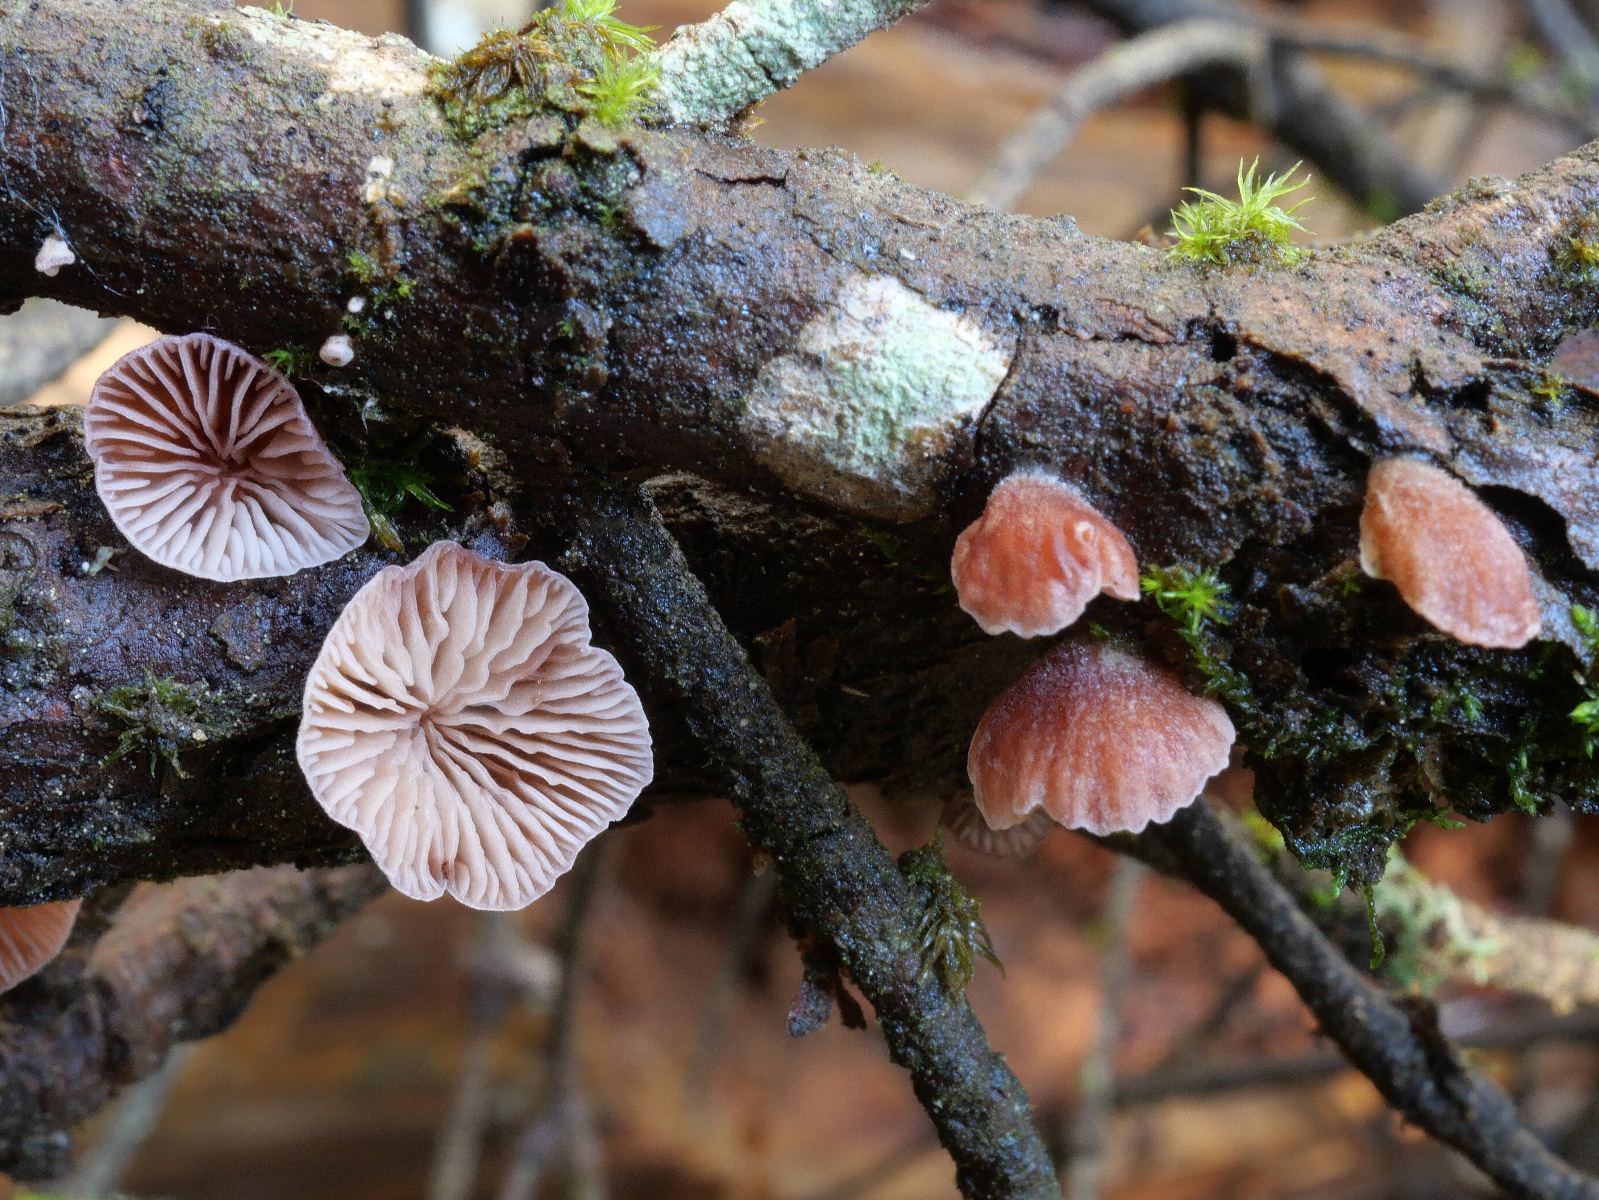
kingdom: Fungi
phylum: Basidiomycota
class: Agaricomycetes
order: Agaricales
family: Mycenaceae
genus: Panellus
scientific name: Panellus violaceofulvus
